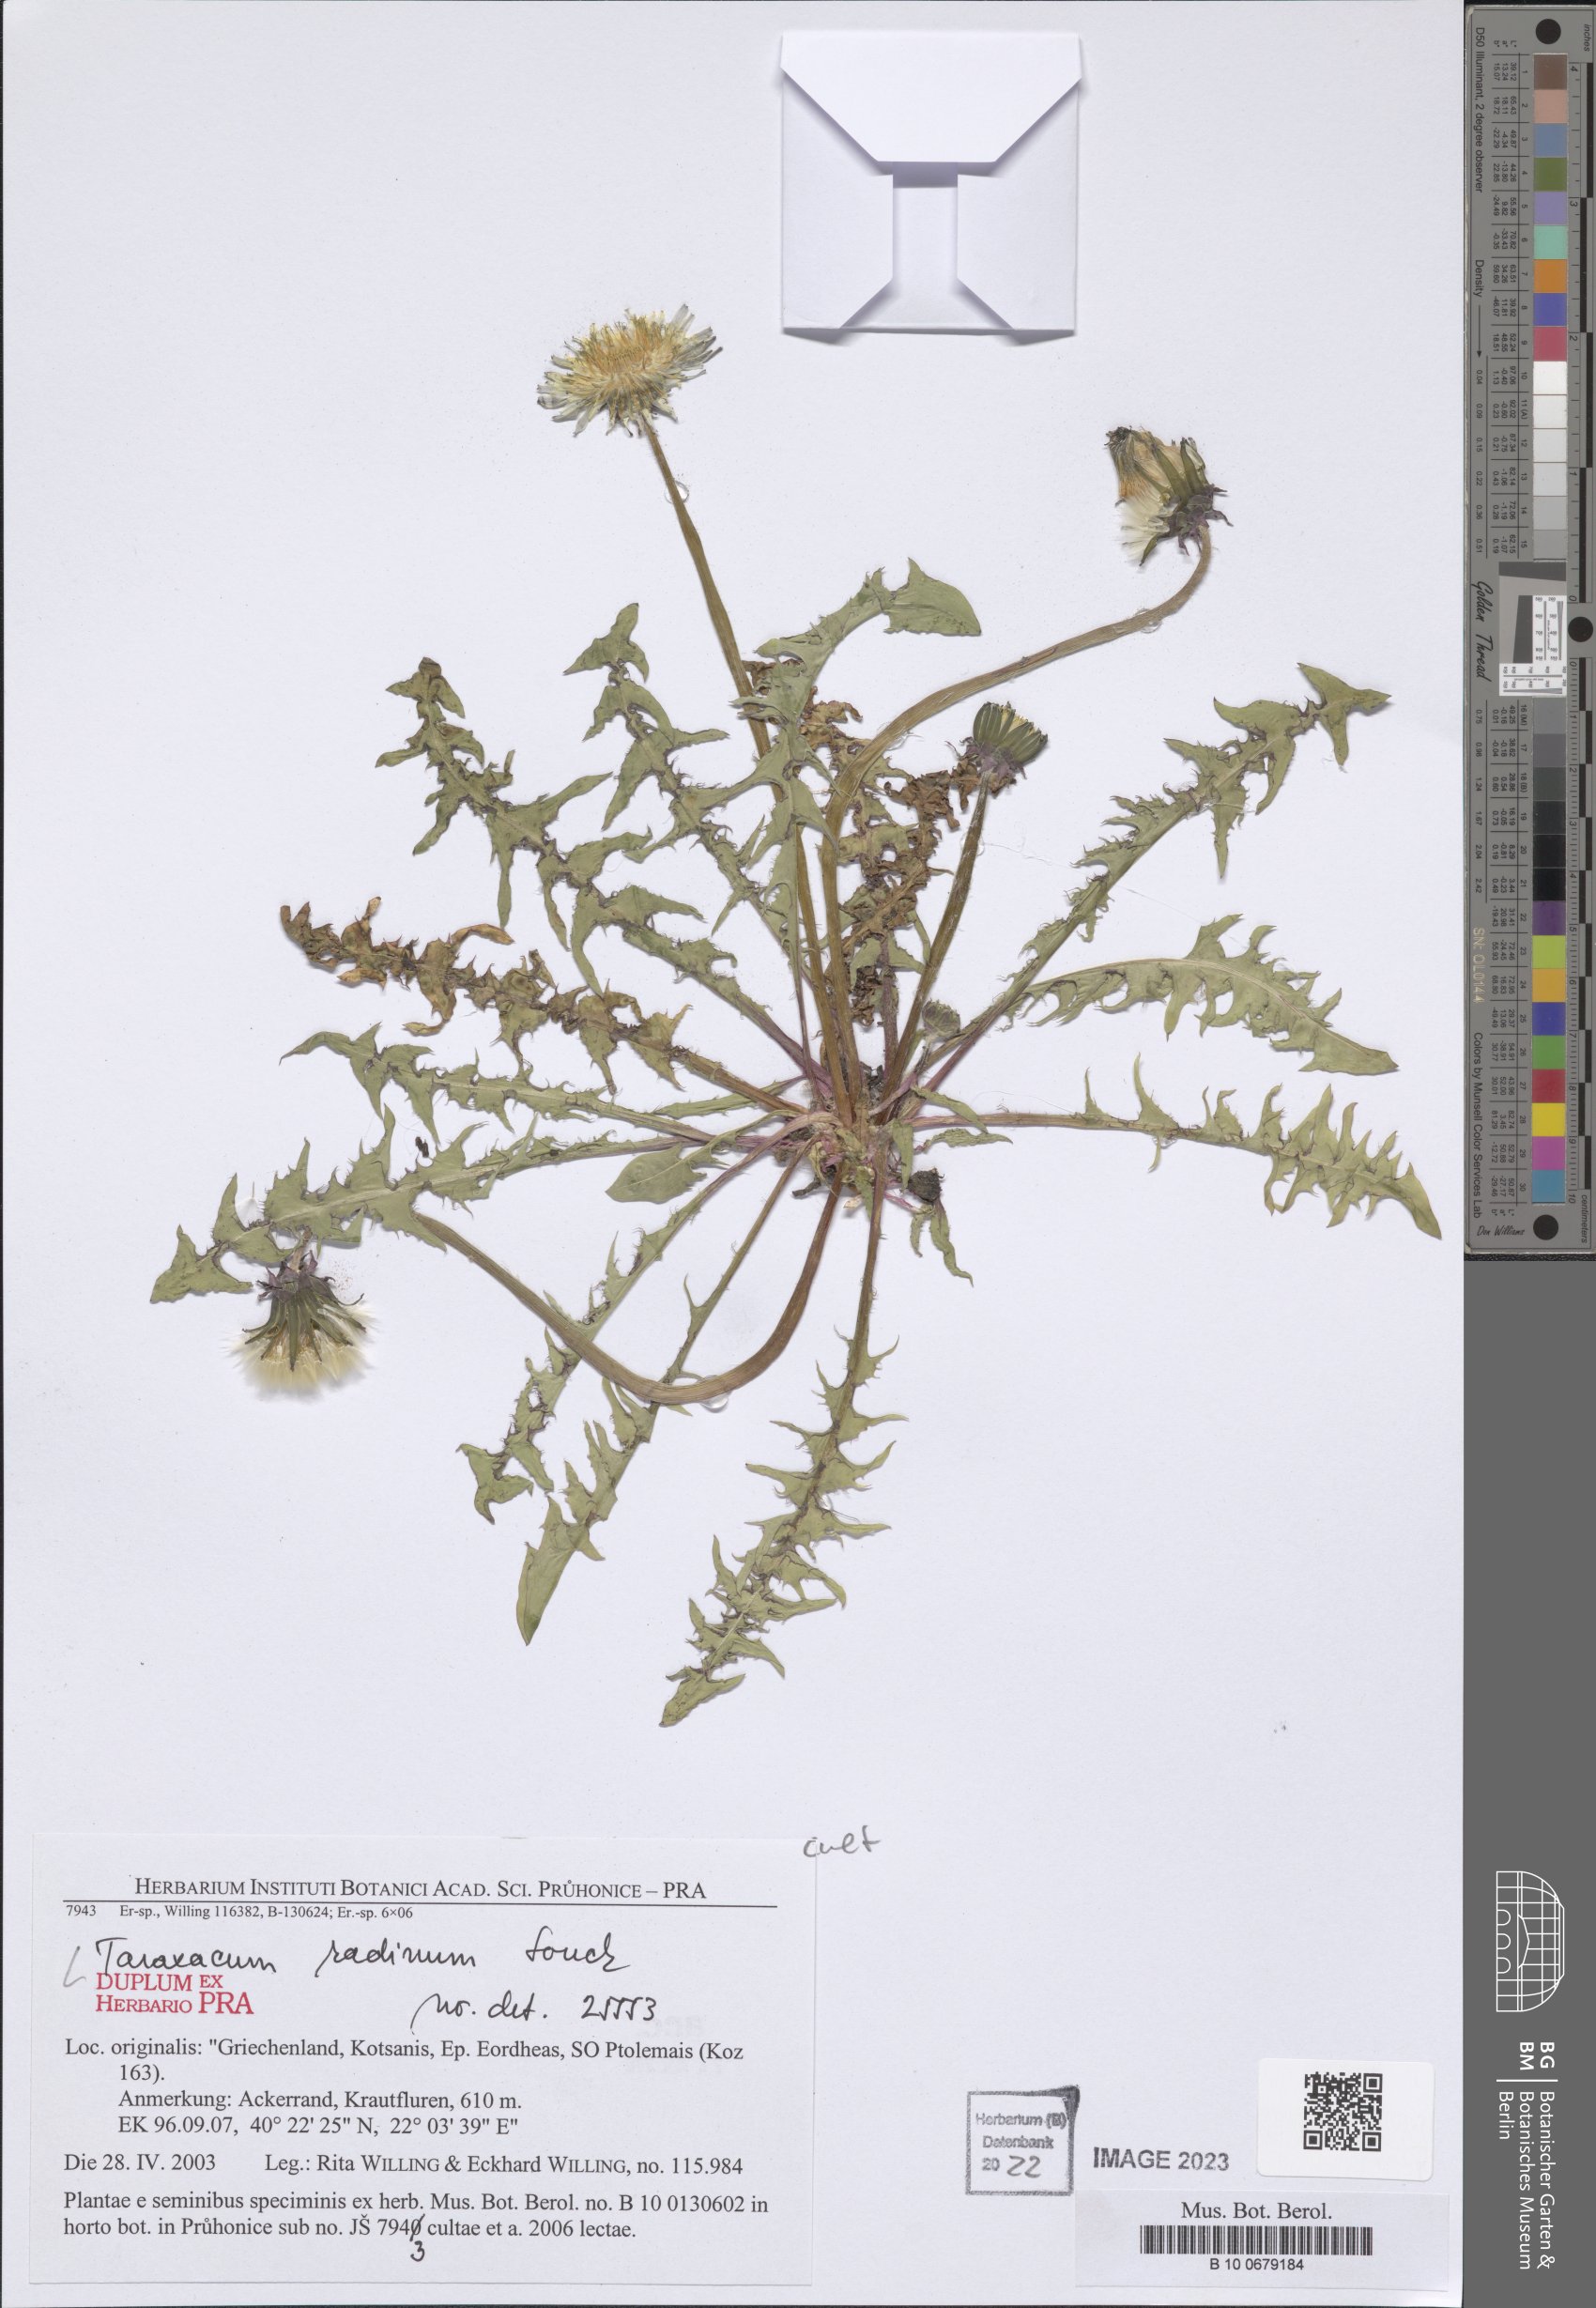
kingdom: Plantae
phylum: Tracheophyta
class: Magnoliopsida
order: Asterales
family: Asteraceae
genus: Taraxacum
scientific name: Taraxacum radinum
